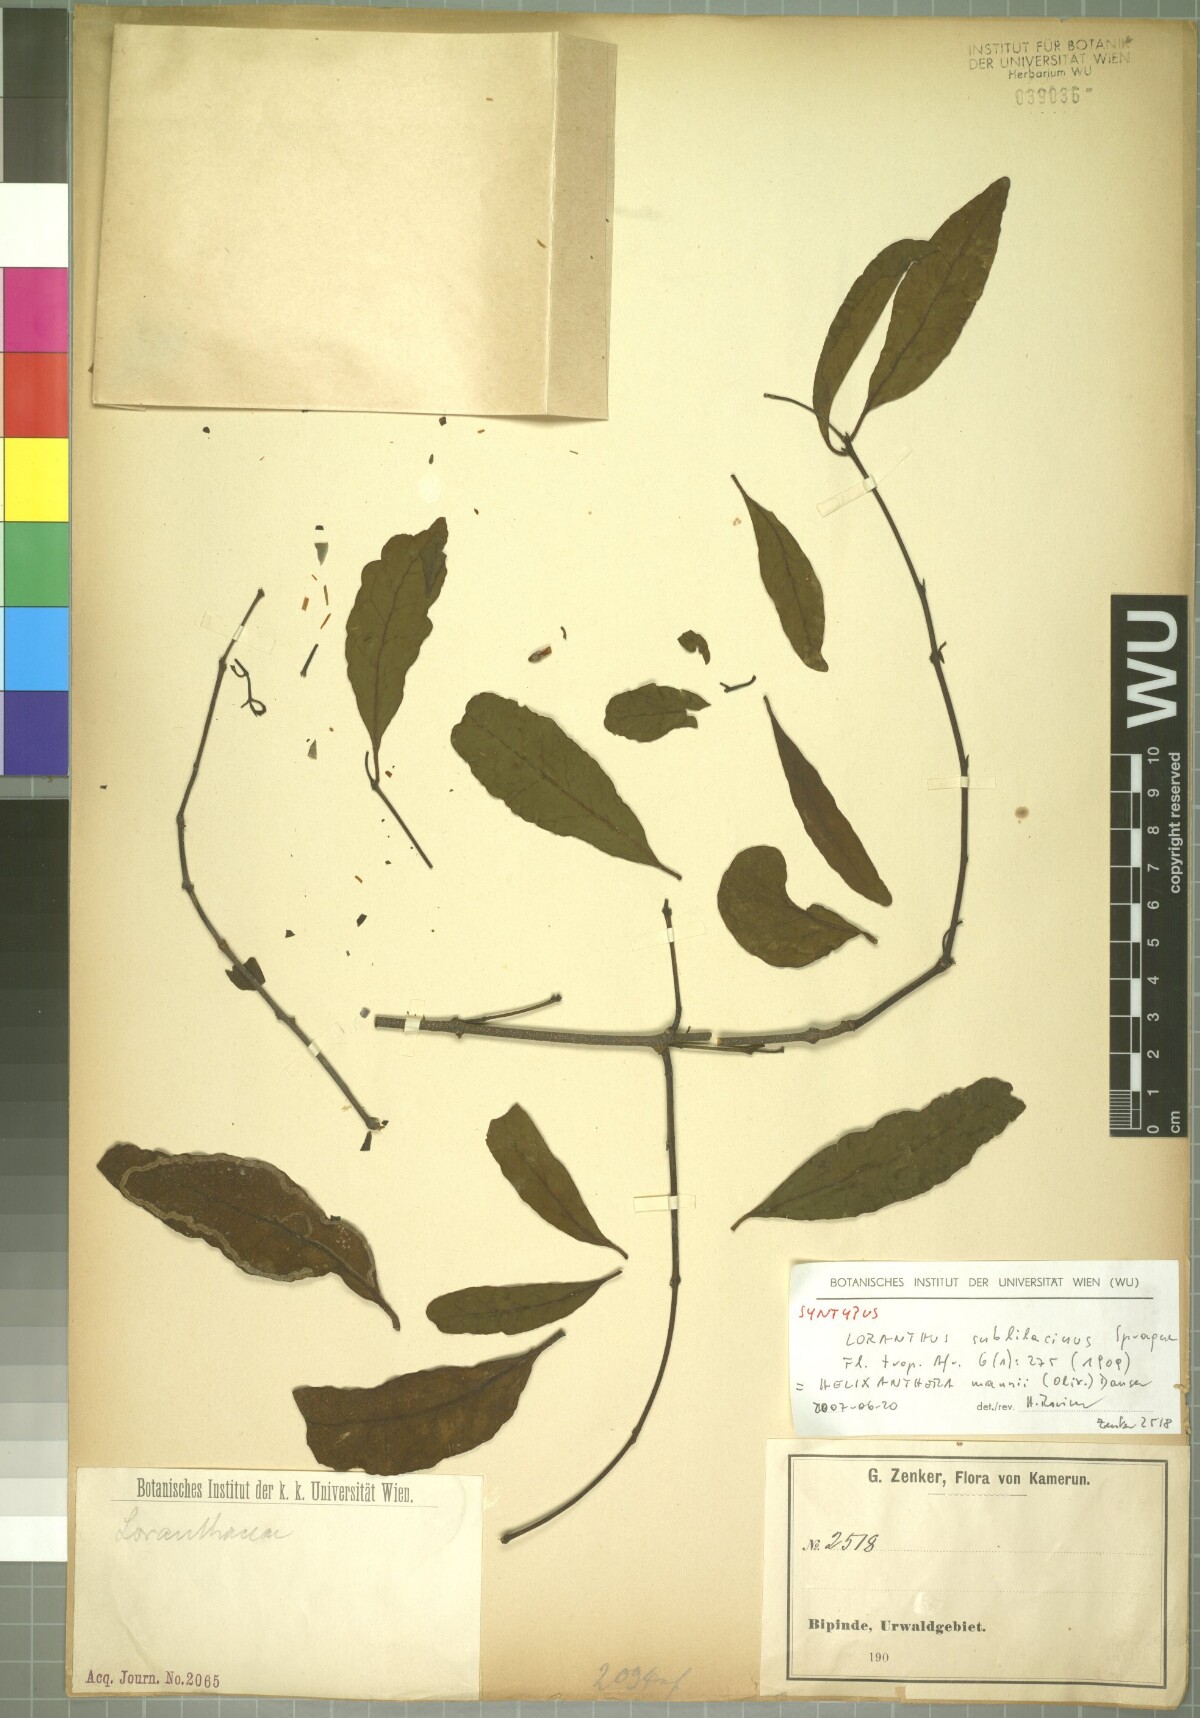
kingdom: Plantae
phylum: Tracheophyta
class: Magnoliopsida
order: Santalales
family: Loranthaceae
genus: Helixanthera
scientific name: Helixanthera mannii
